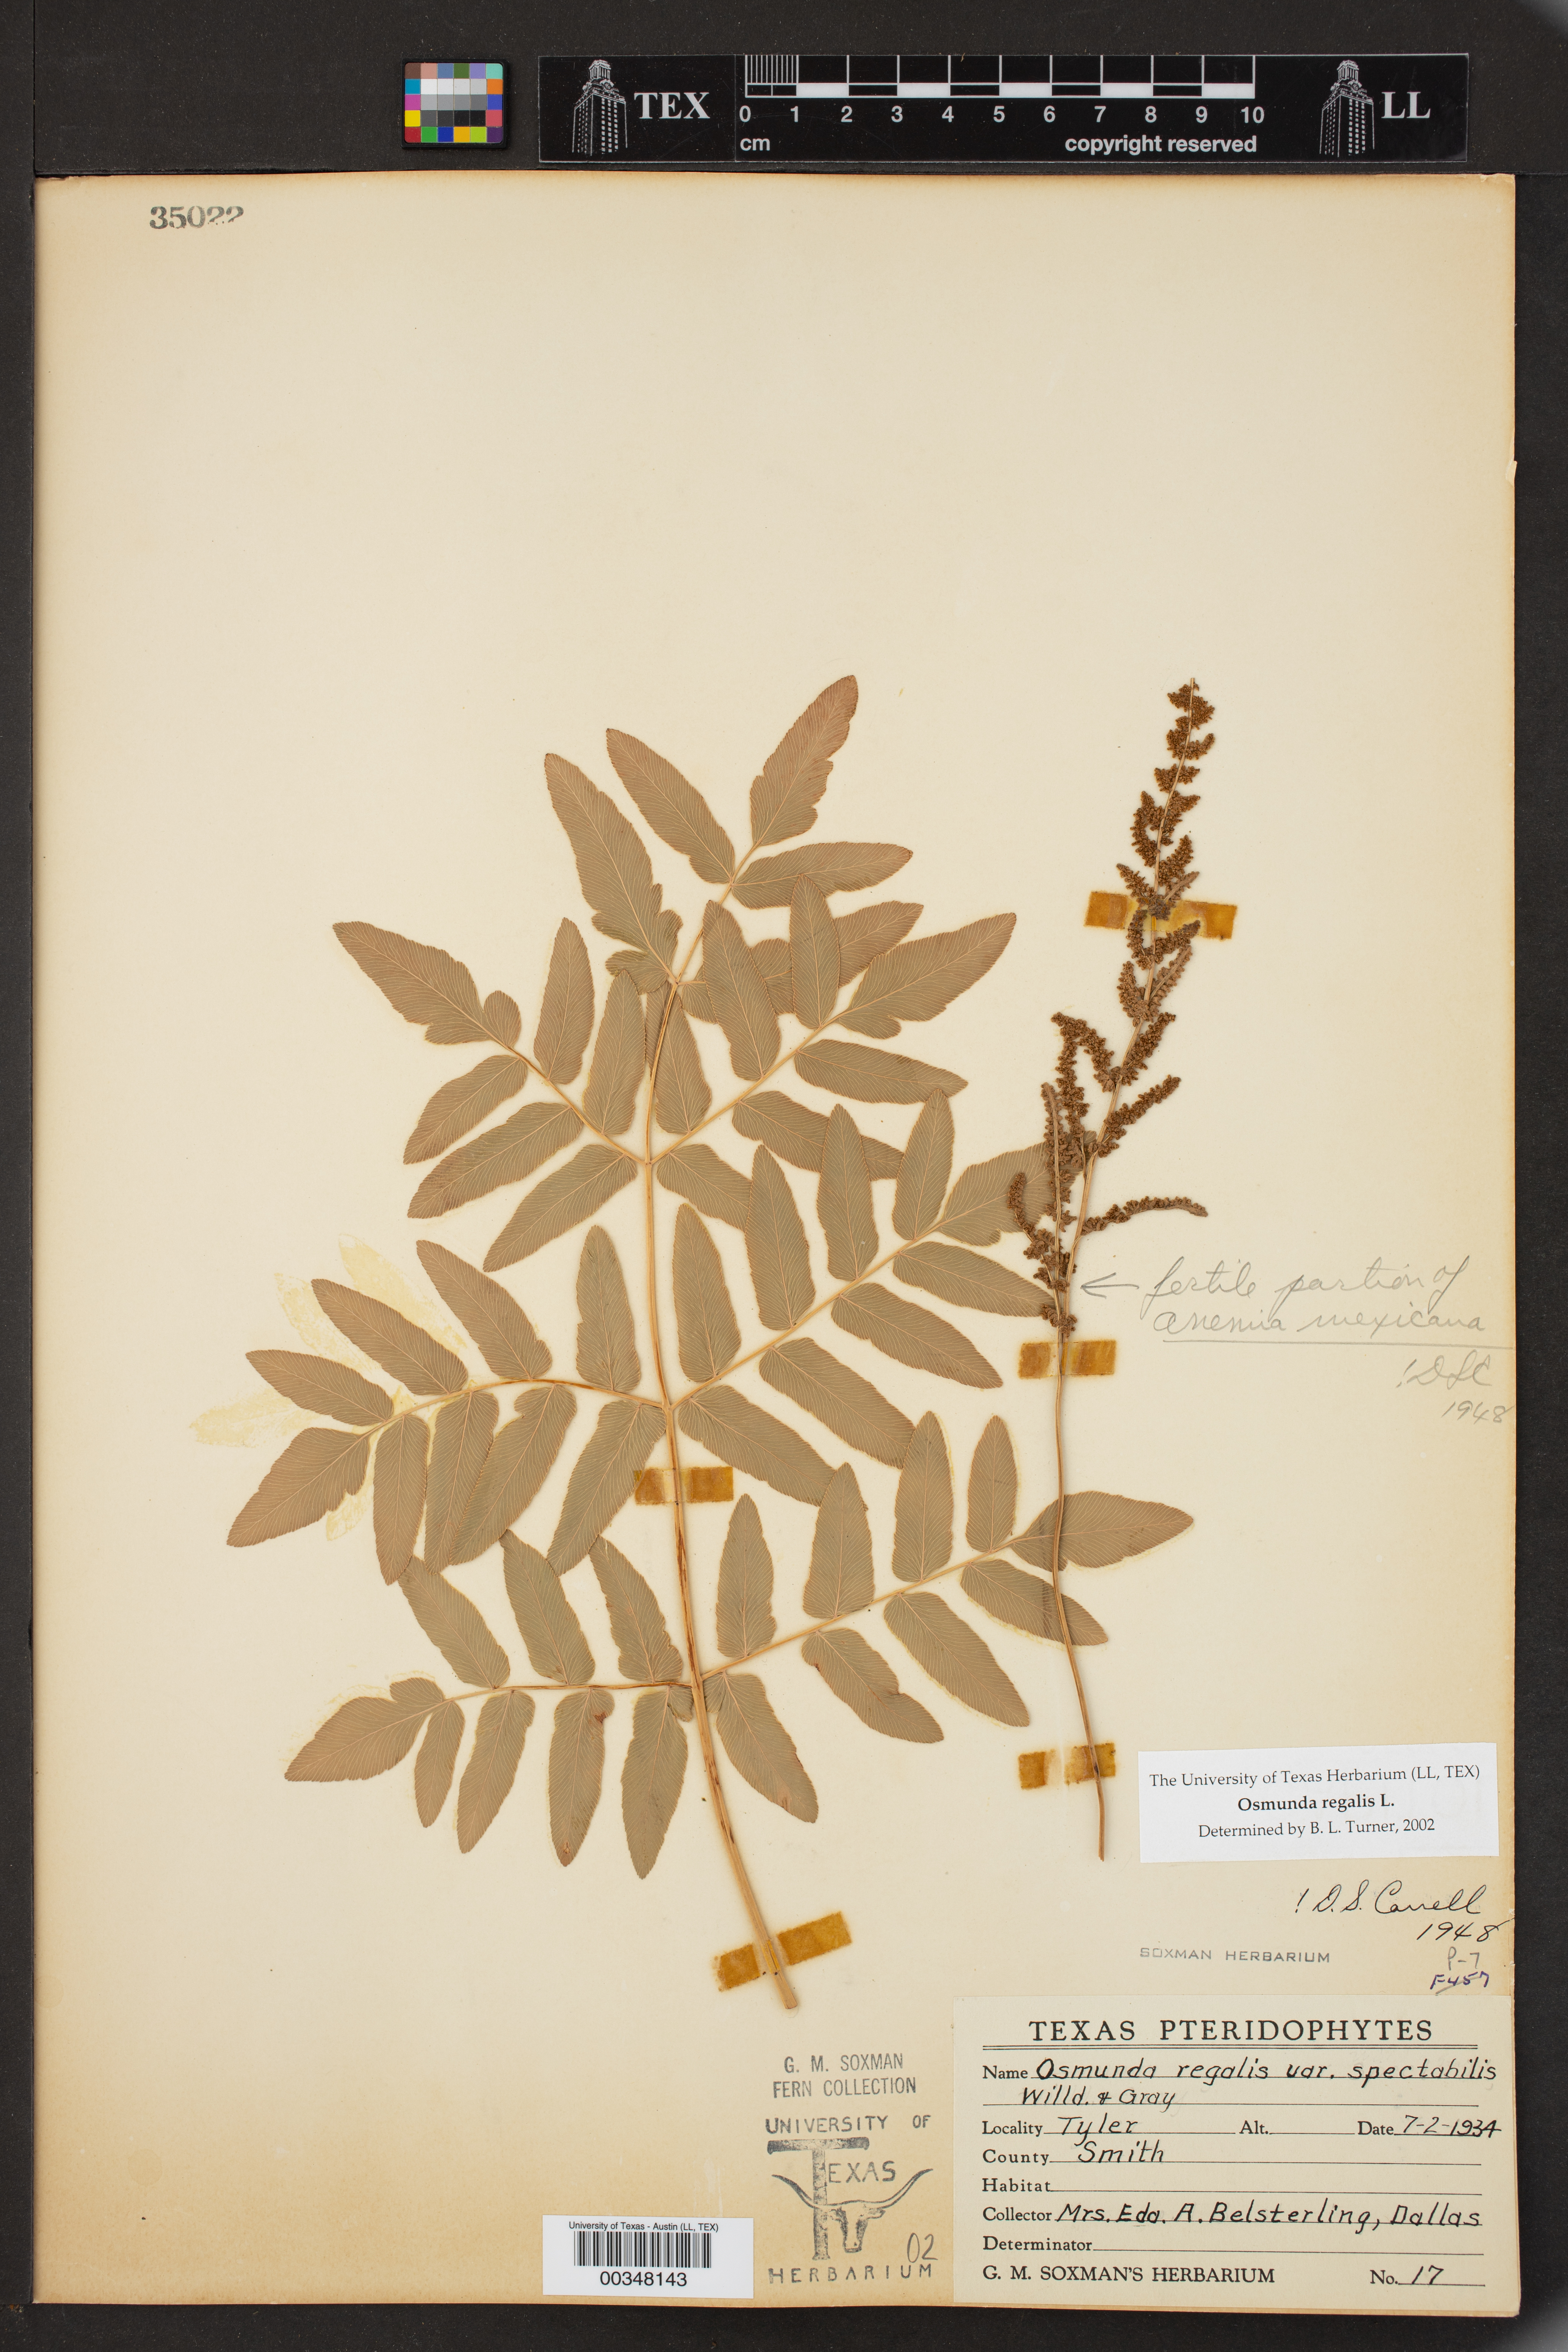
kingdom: Plantae
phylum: Tracheophyta
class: Polypodiopsida
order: Osmundales
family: Osmundaceae
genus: Osmunda
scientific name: Osmunda regalis
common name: Royal fern
